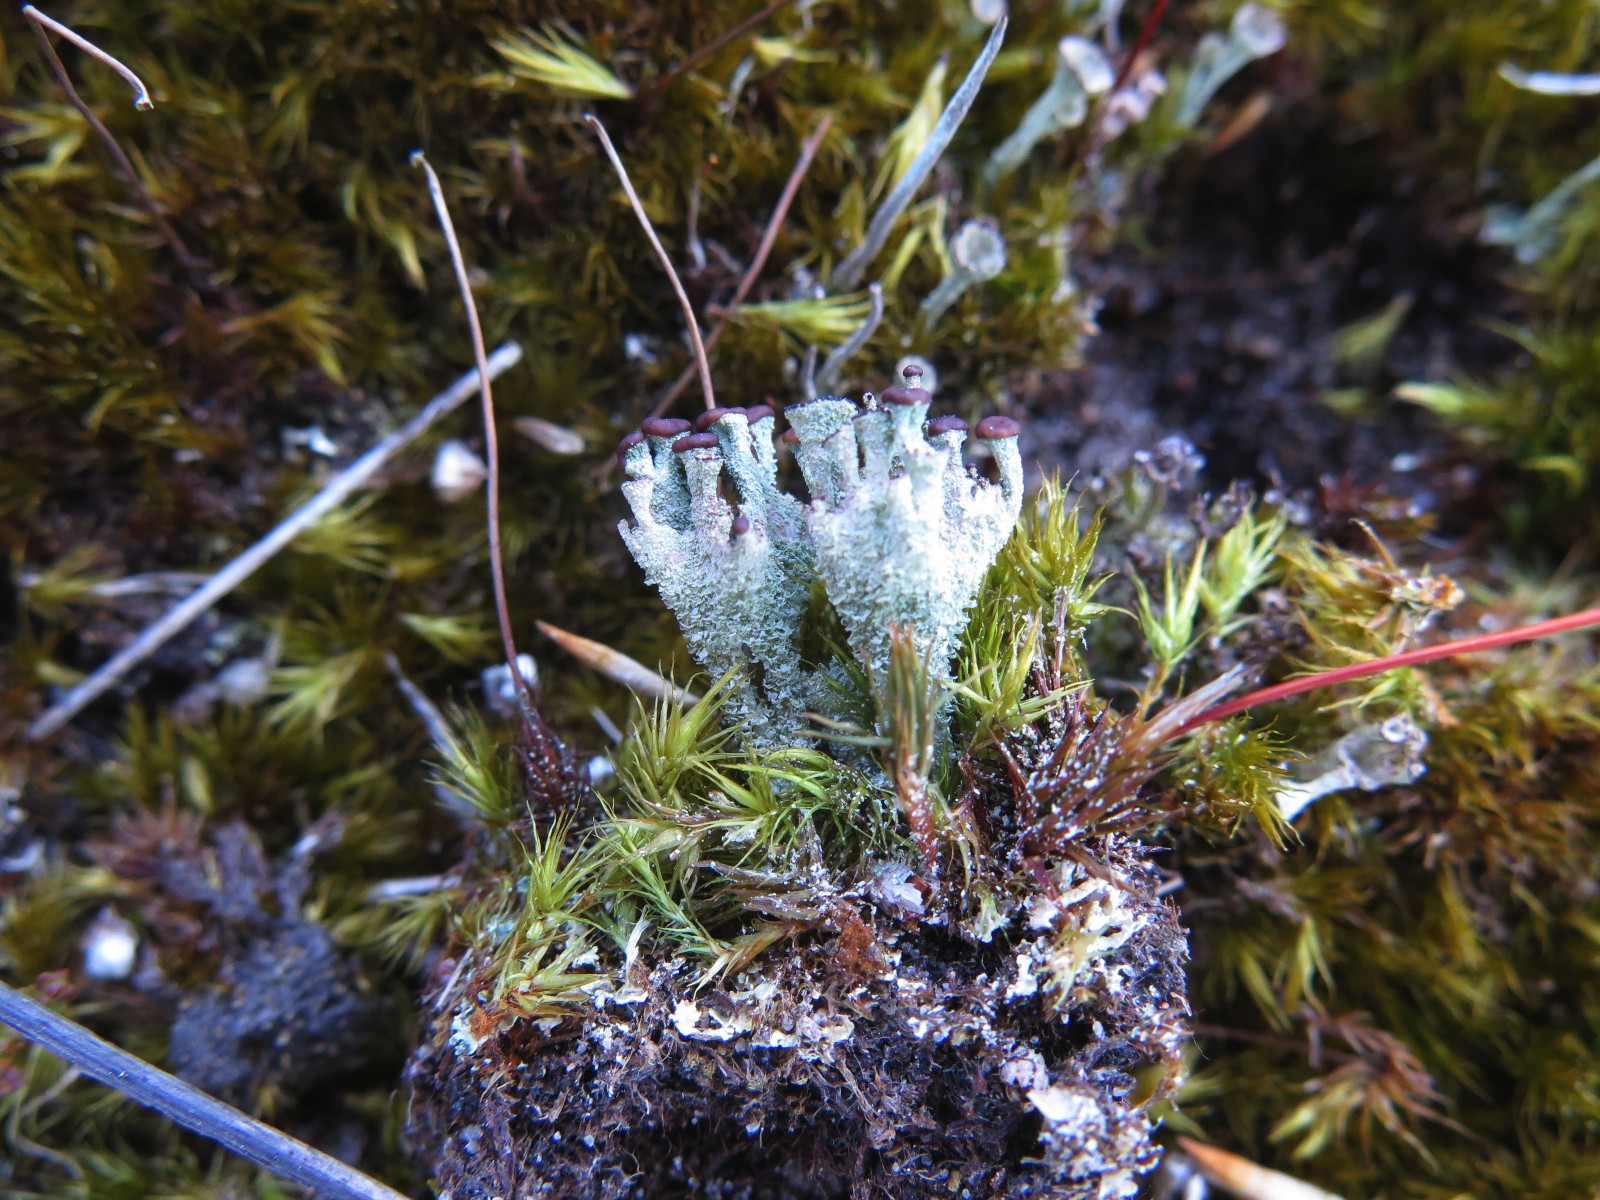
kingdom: Fungi
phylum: Ascomycota
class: Lecanoromycetes
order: Lecanorales
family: Cladoniaceae
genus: Cladonia
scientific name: Cladonia
